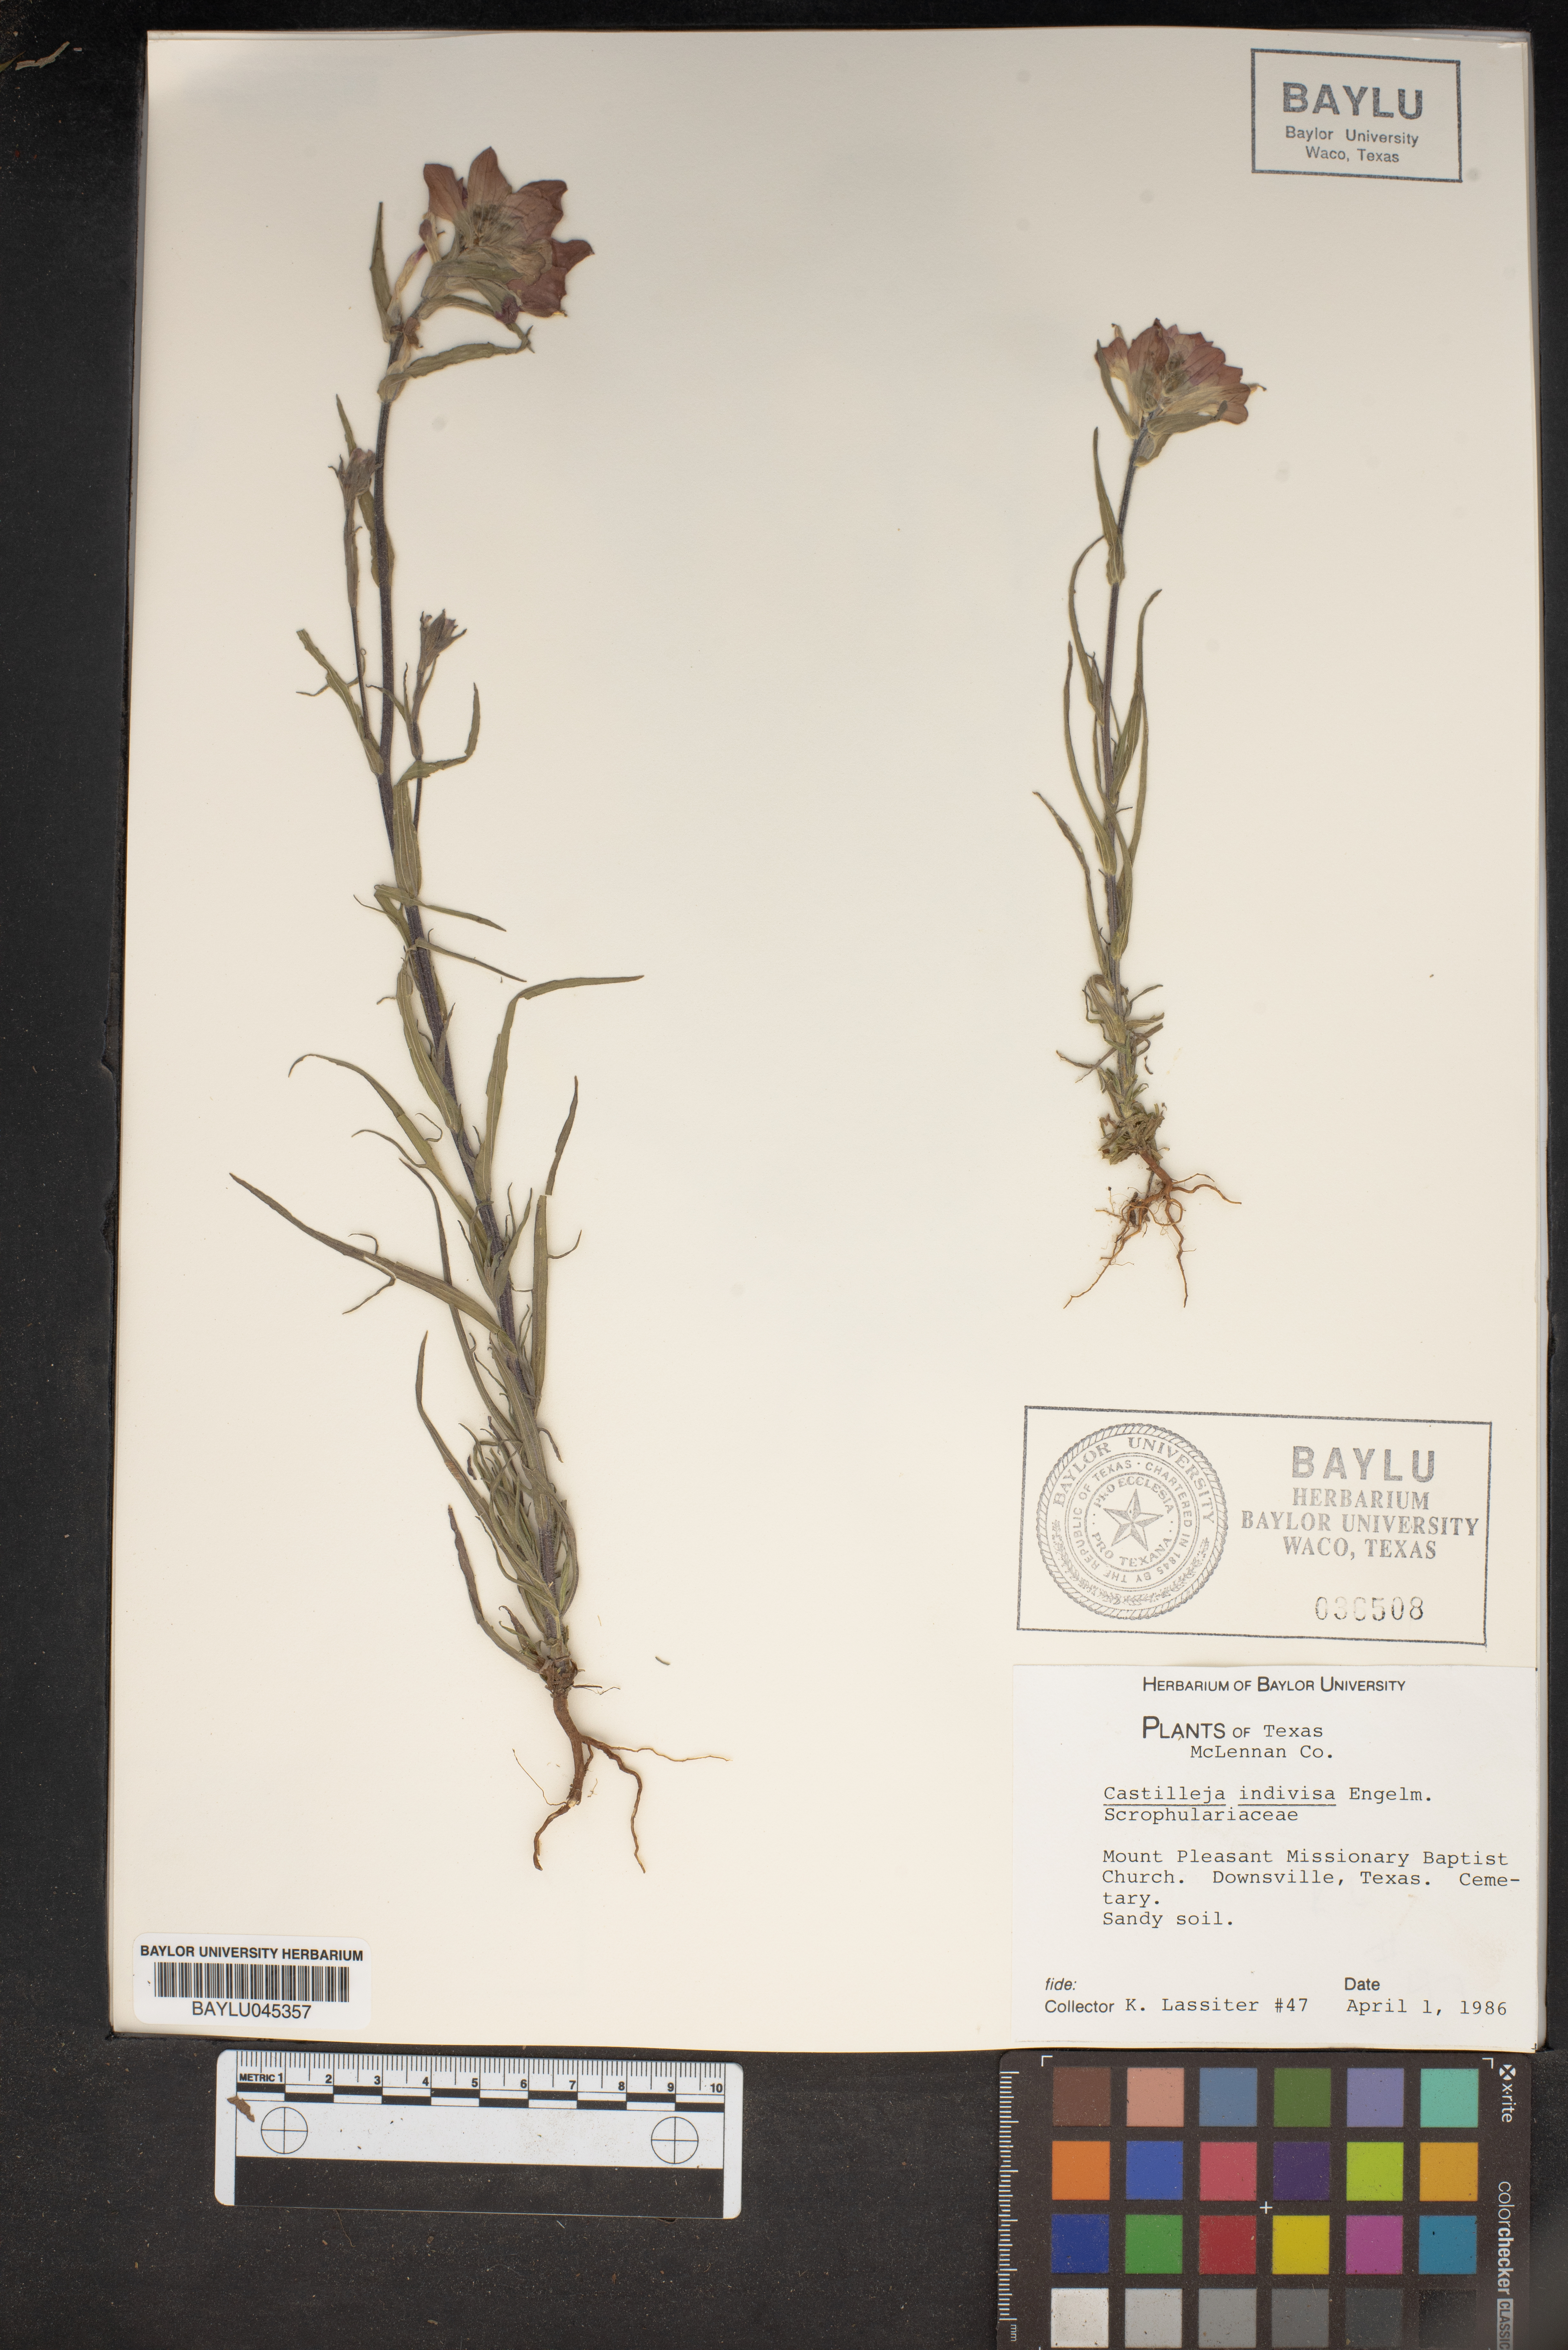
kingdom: Plantae
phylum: Tracheophyta
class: Magnoliopsida
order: Lamiales
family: Orobanchaceae
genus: Castilleja
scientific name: Castilleja indivisa
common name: Texas paintbrush
